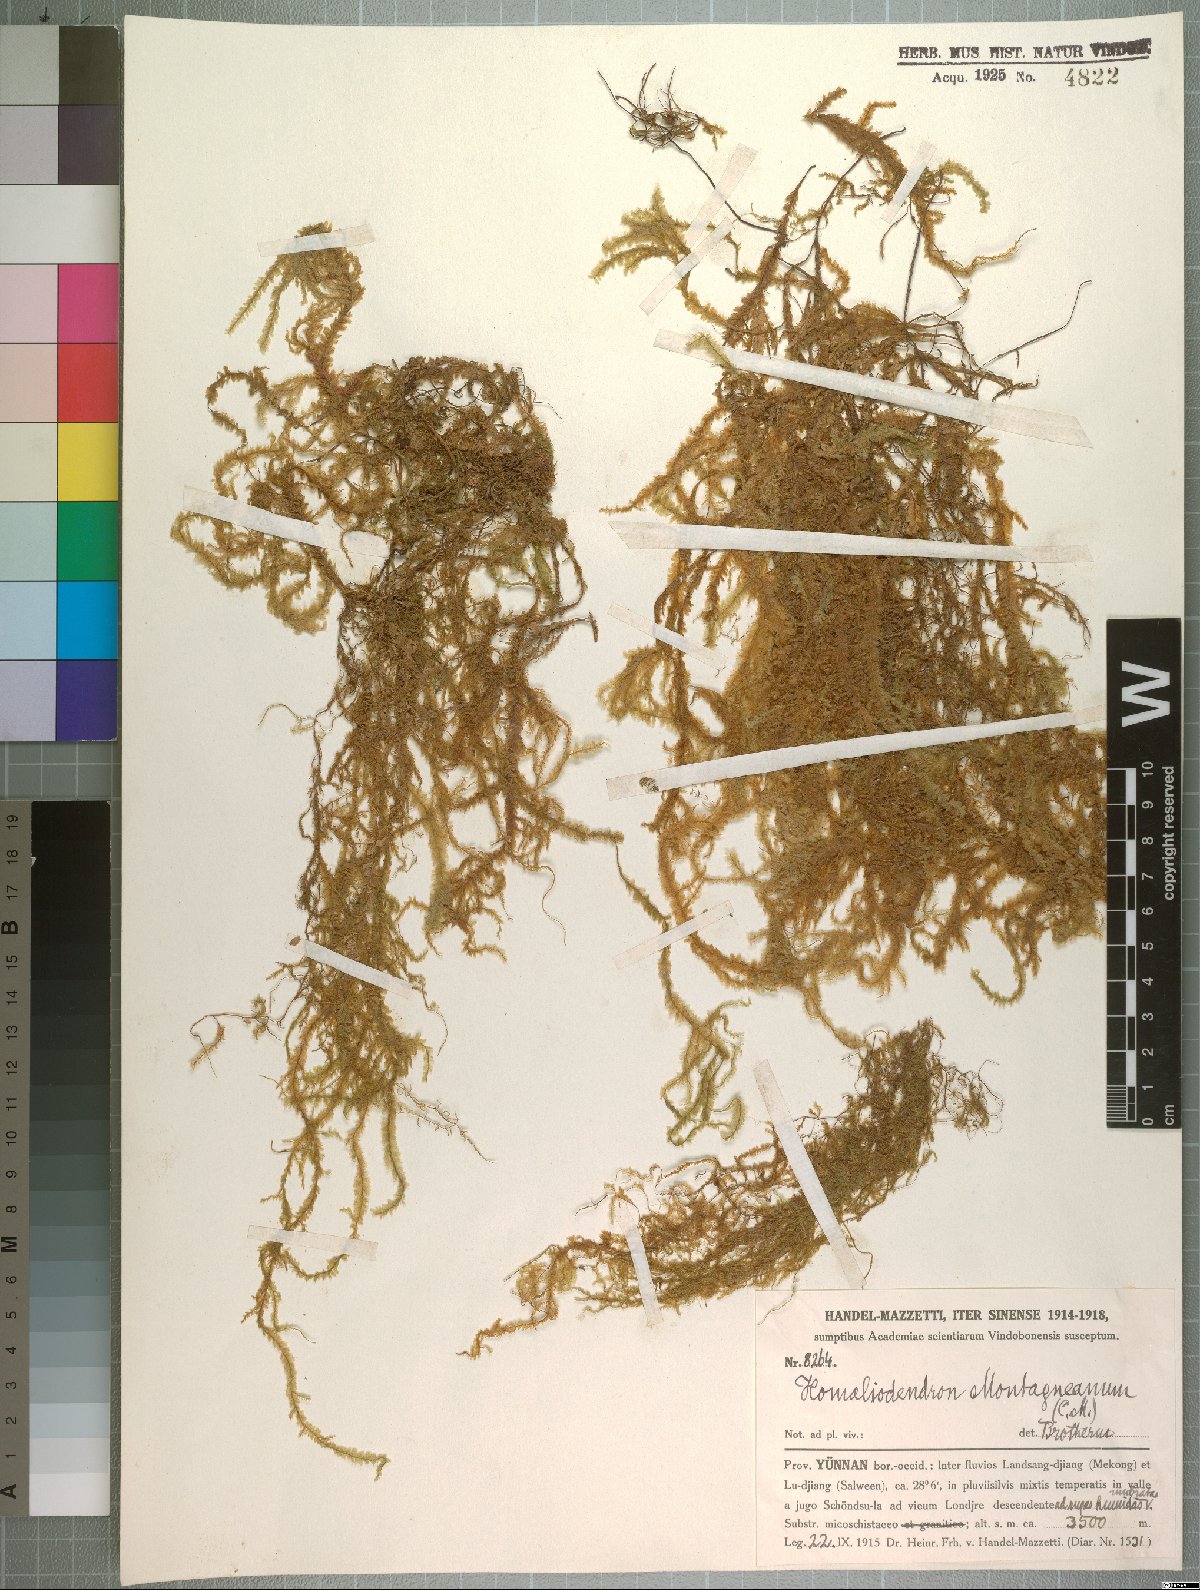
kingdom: Plantae
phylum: Bryophyta
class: Bryopsida
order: Hypnales
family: Neckeraceae
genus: Homaliodendron
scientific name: Homaliodendron montagneanum
